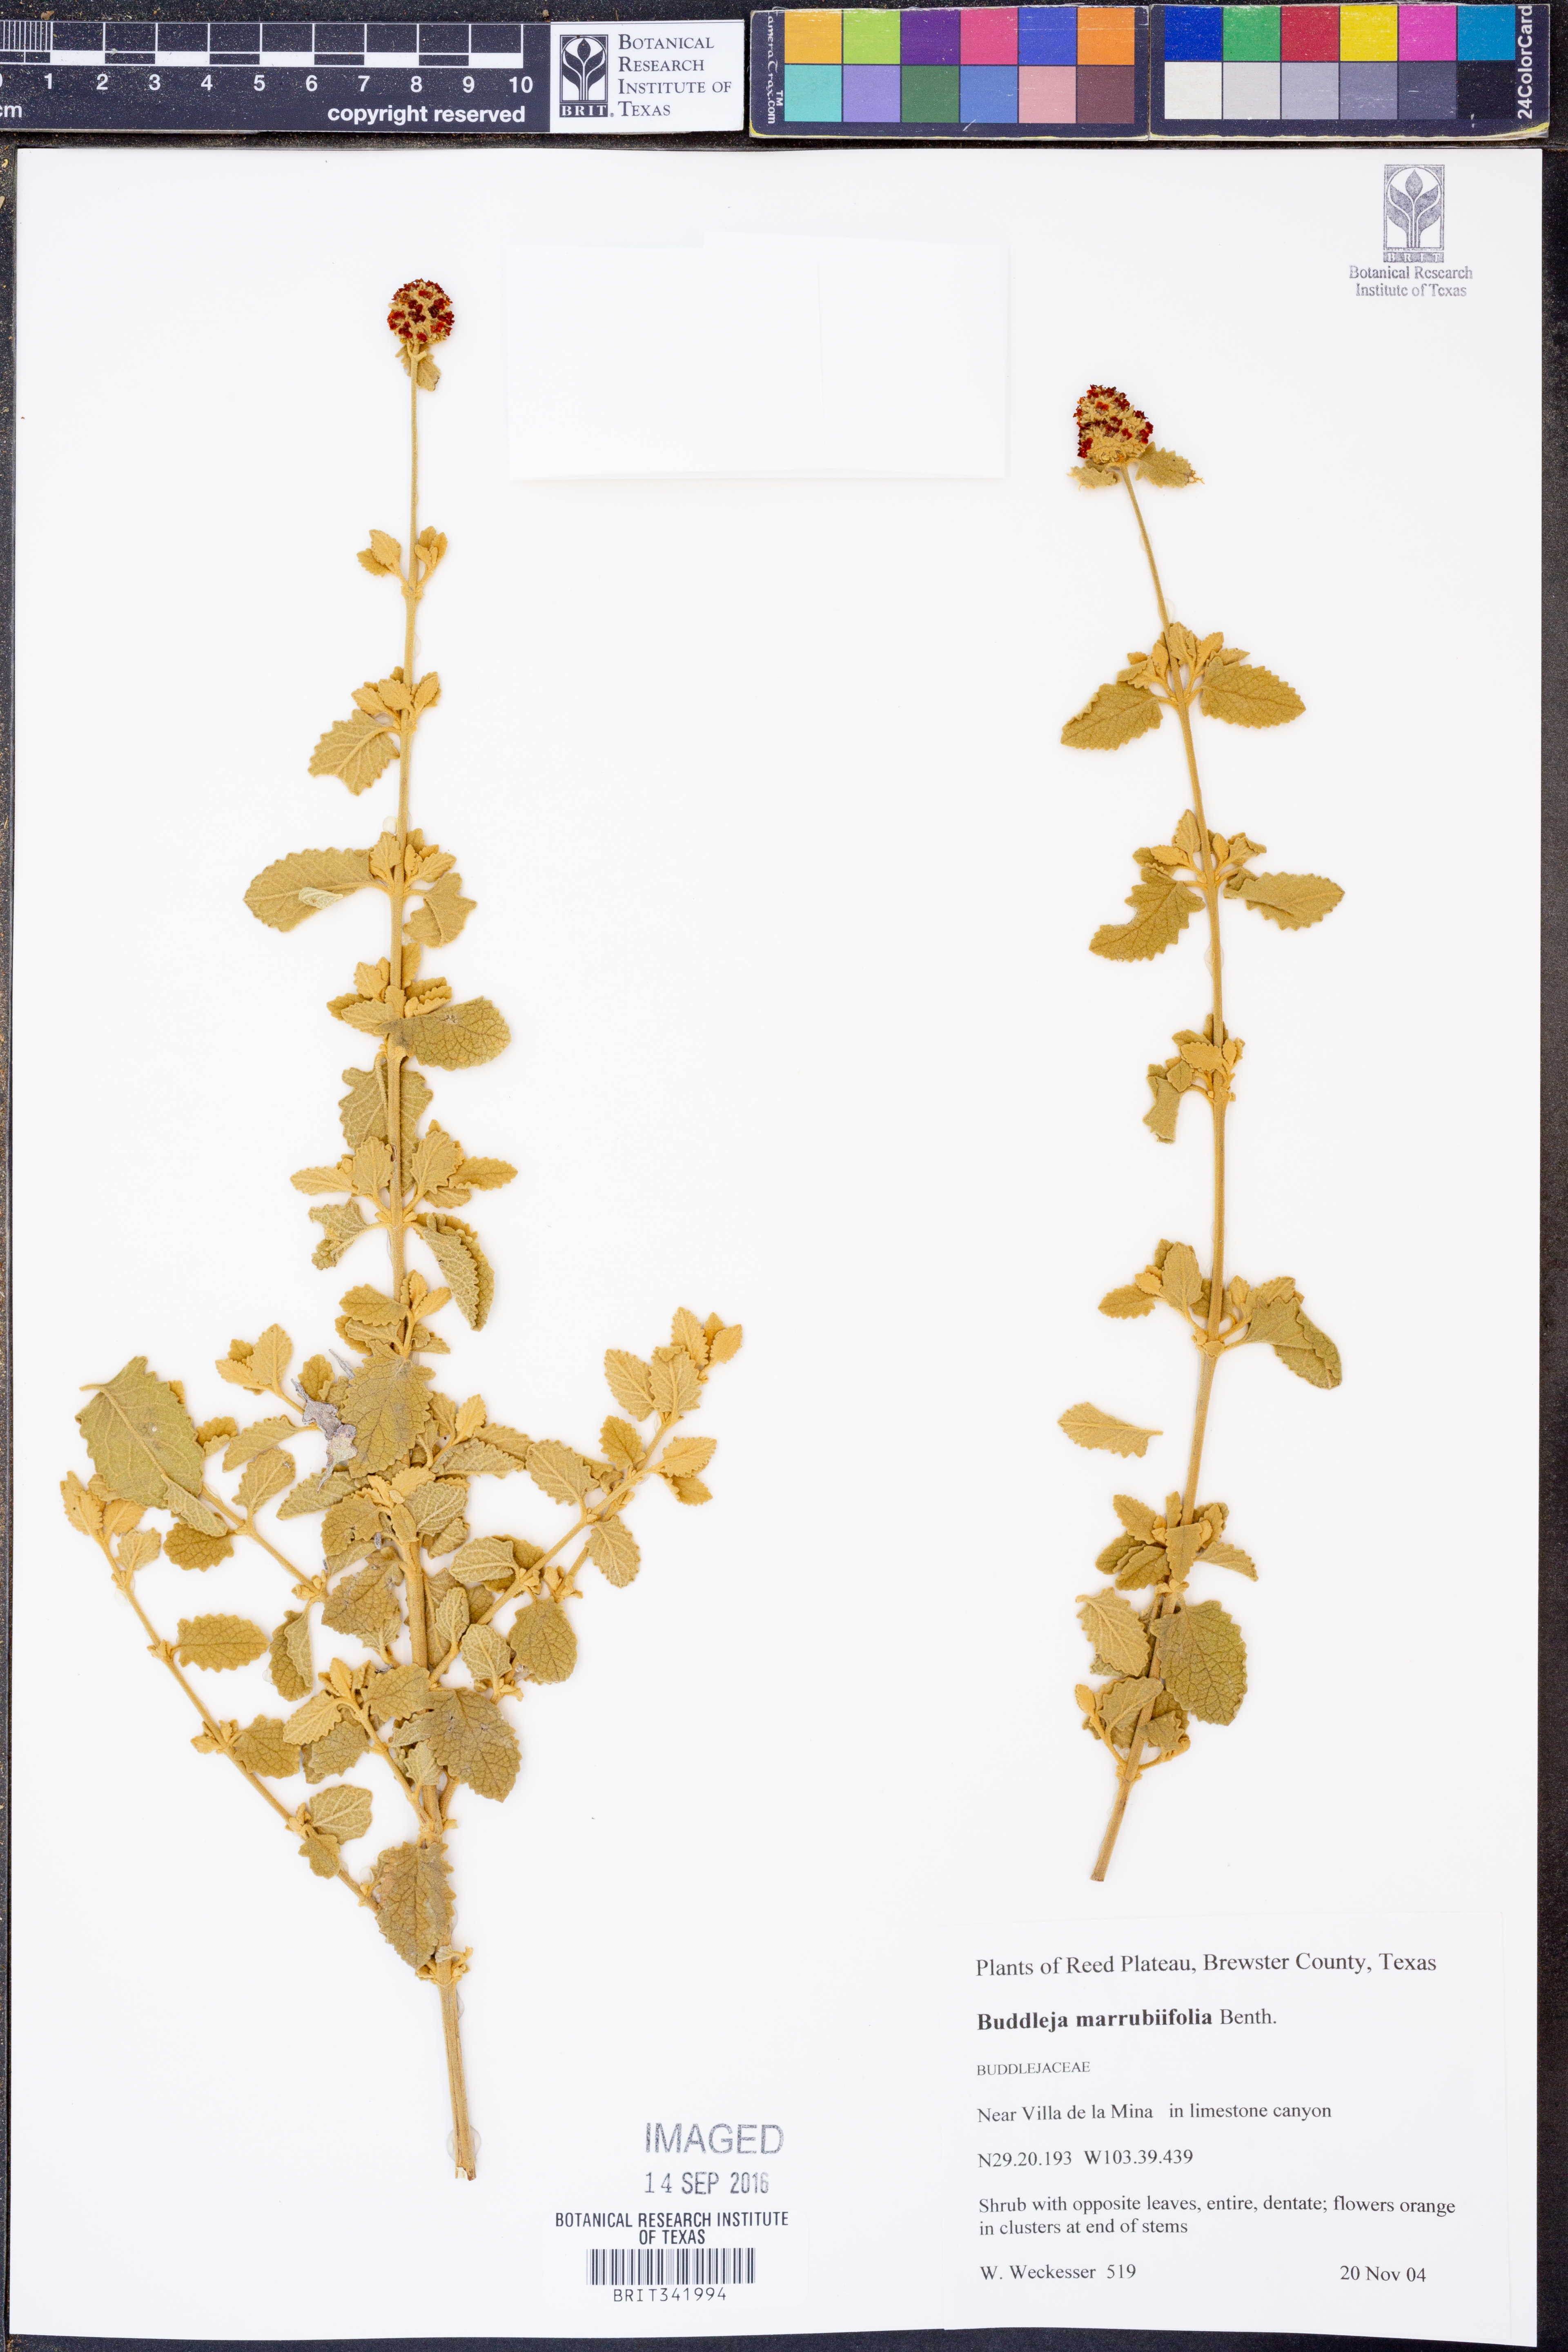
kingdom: Plantae
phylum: Tracheophyta
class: Magnoliopsida
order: Lamiales
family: Scrophulariaceae
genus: Buddleja
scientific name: Buddleja marrubiifolia
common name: Woolly butterfly-bush
